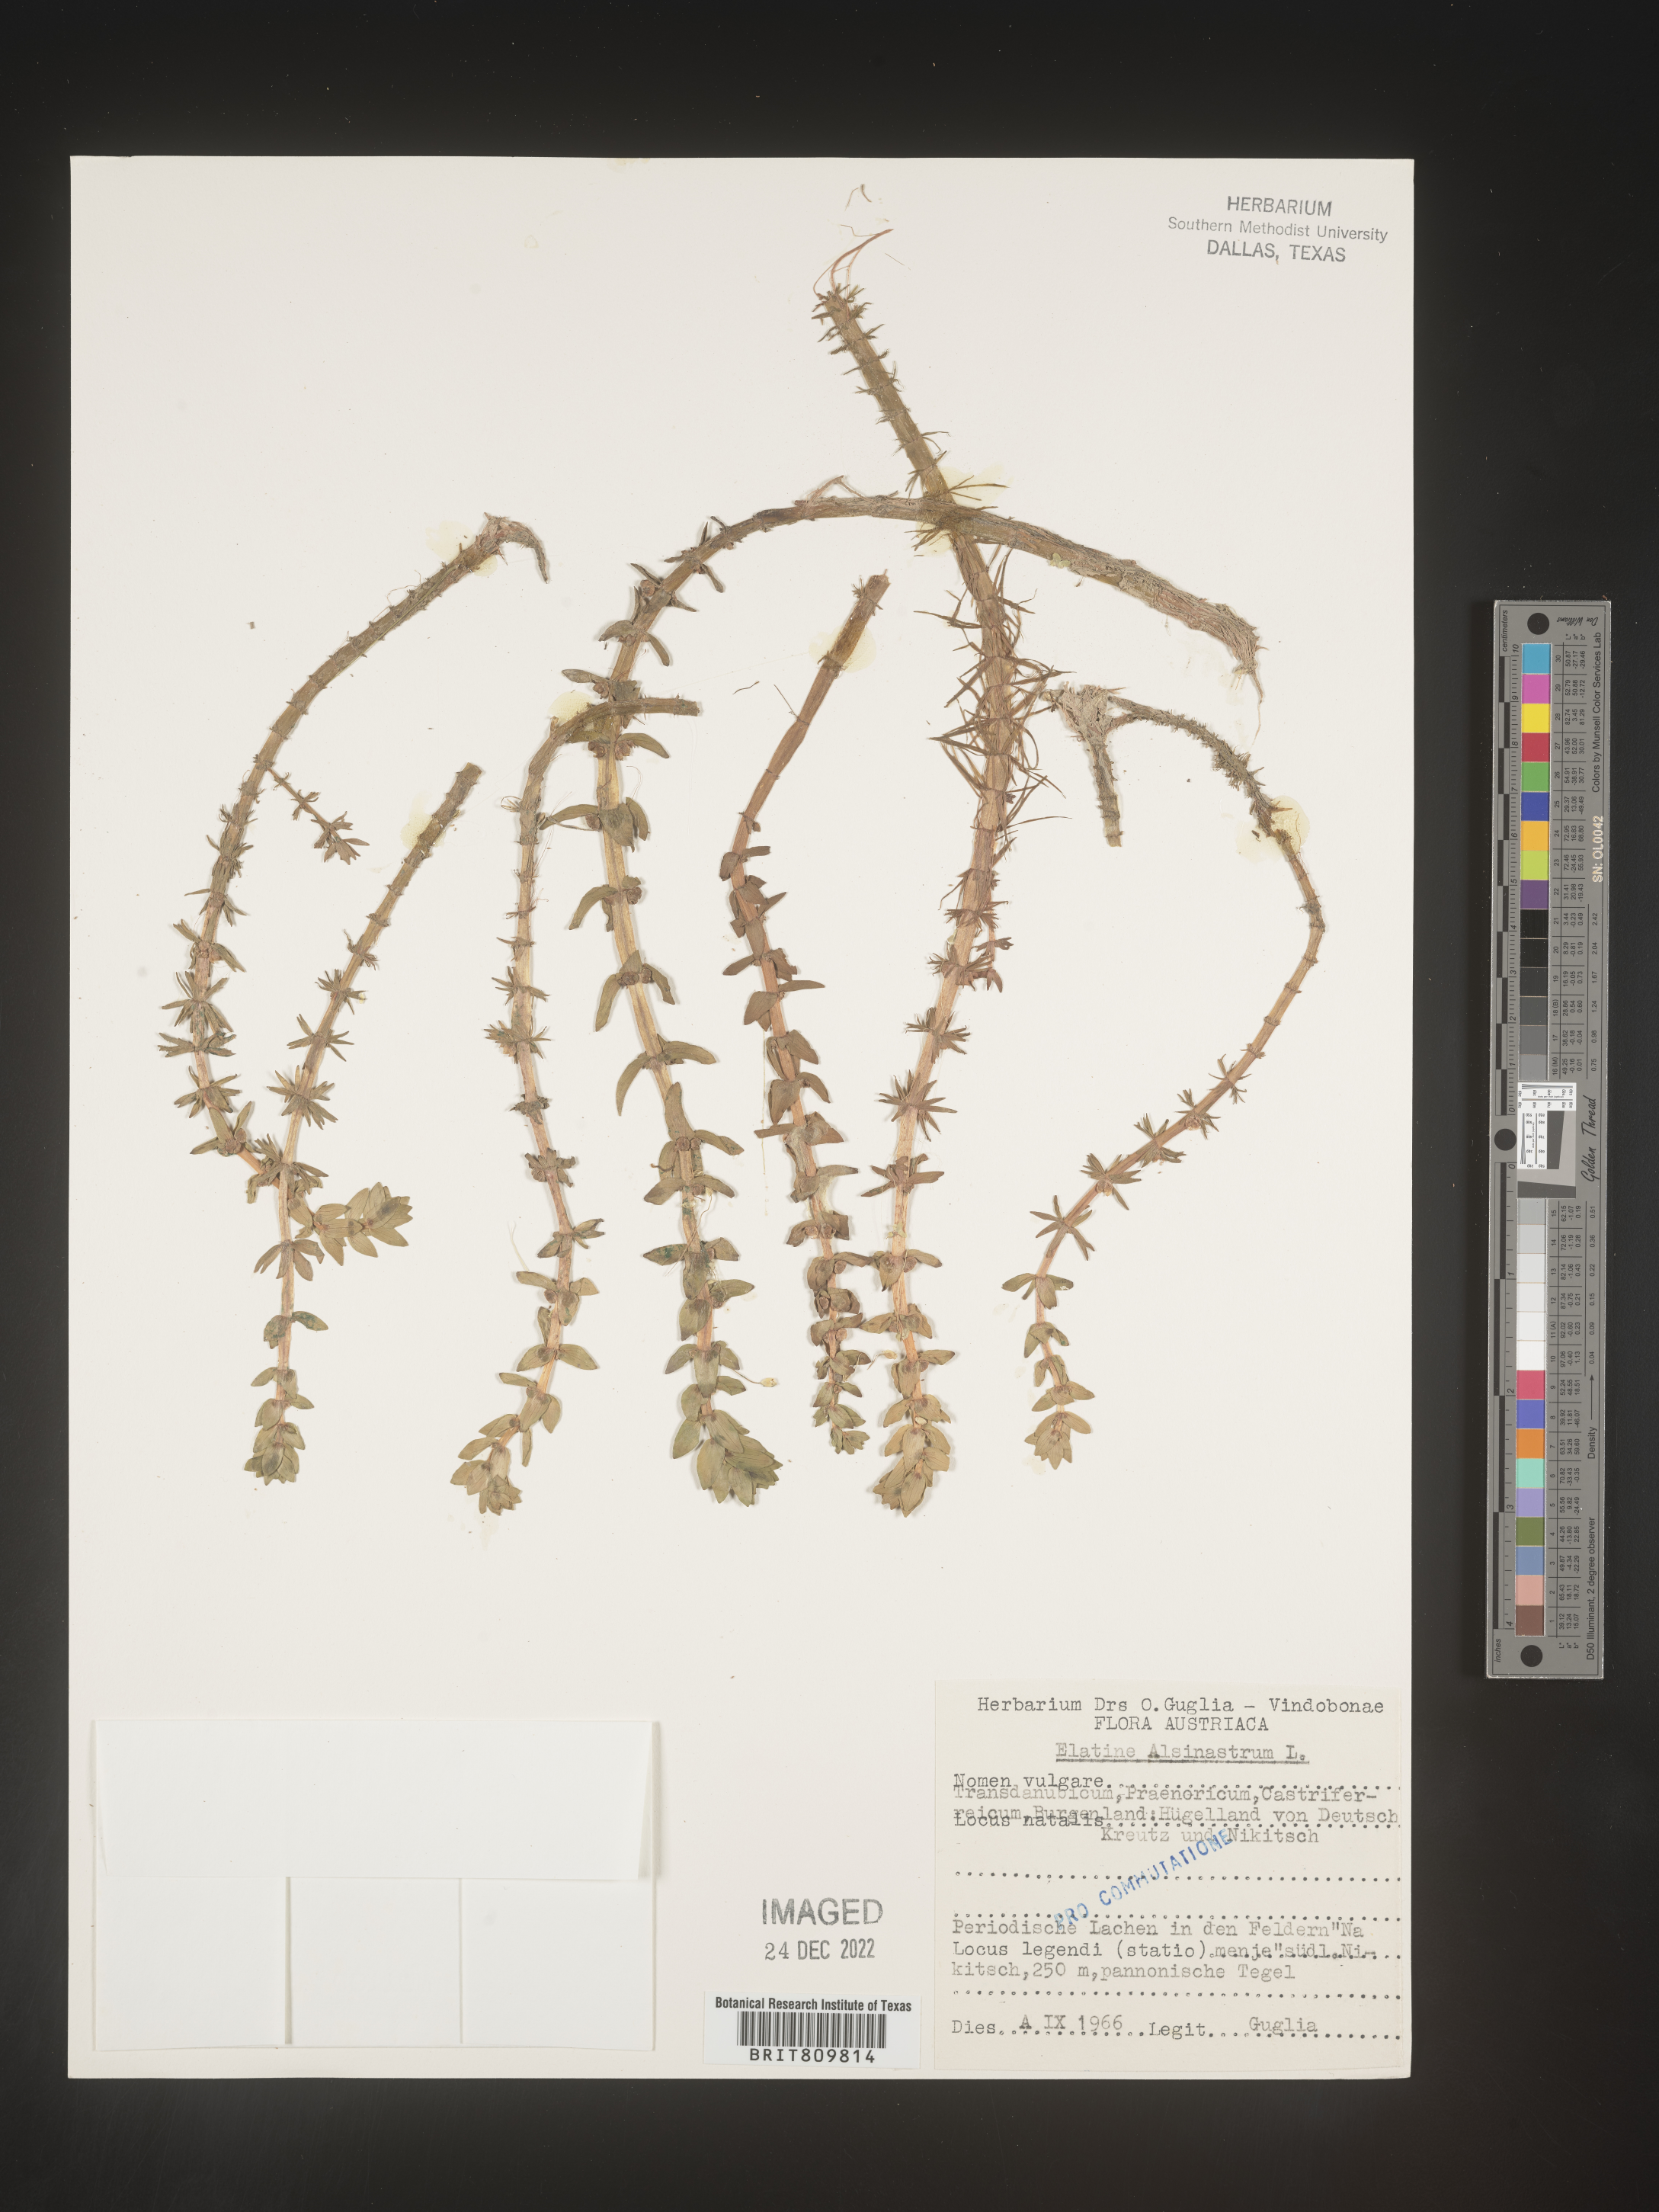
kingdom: Plantae
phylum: Tracheophyta
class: Magnoliopsida
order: Malpighiales
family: Elatinaceae
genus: Elatine
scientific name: Elatine
